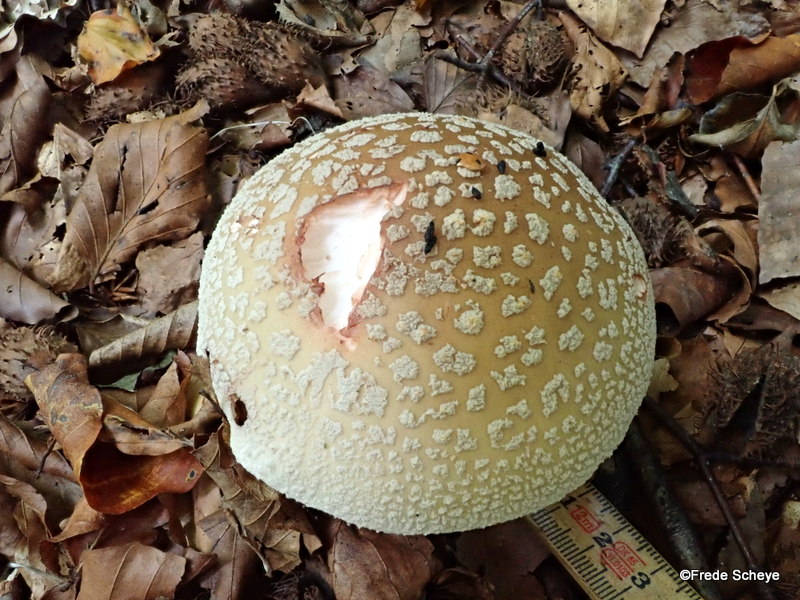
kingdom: Fungi
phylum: Basidiomycota
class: Agaricomycetes
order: Agaricales
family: Amanitaceae
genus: Amanita
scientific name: Amanita rubescens
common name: rødmende fluesvamp
